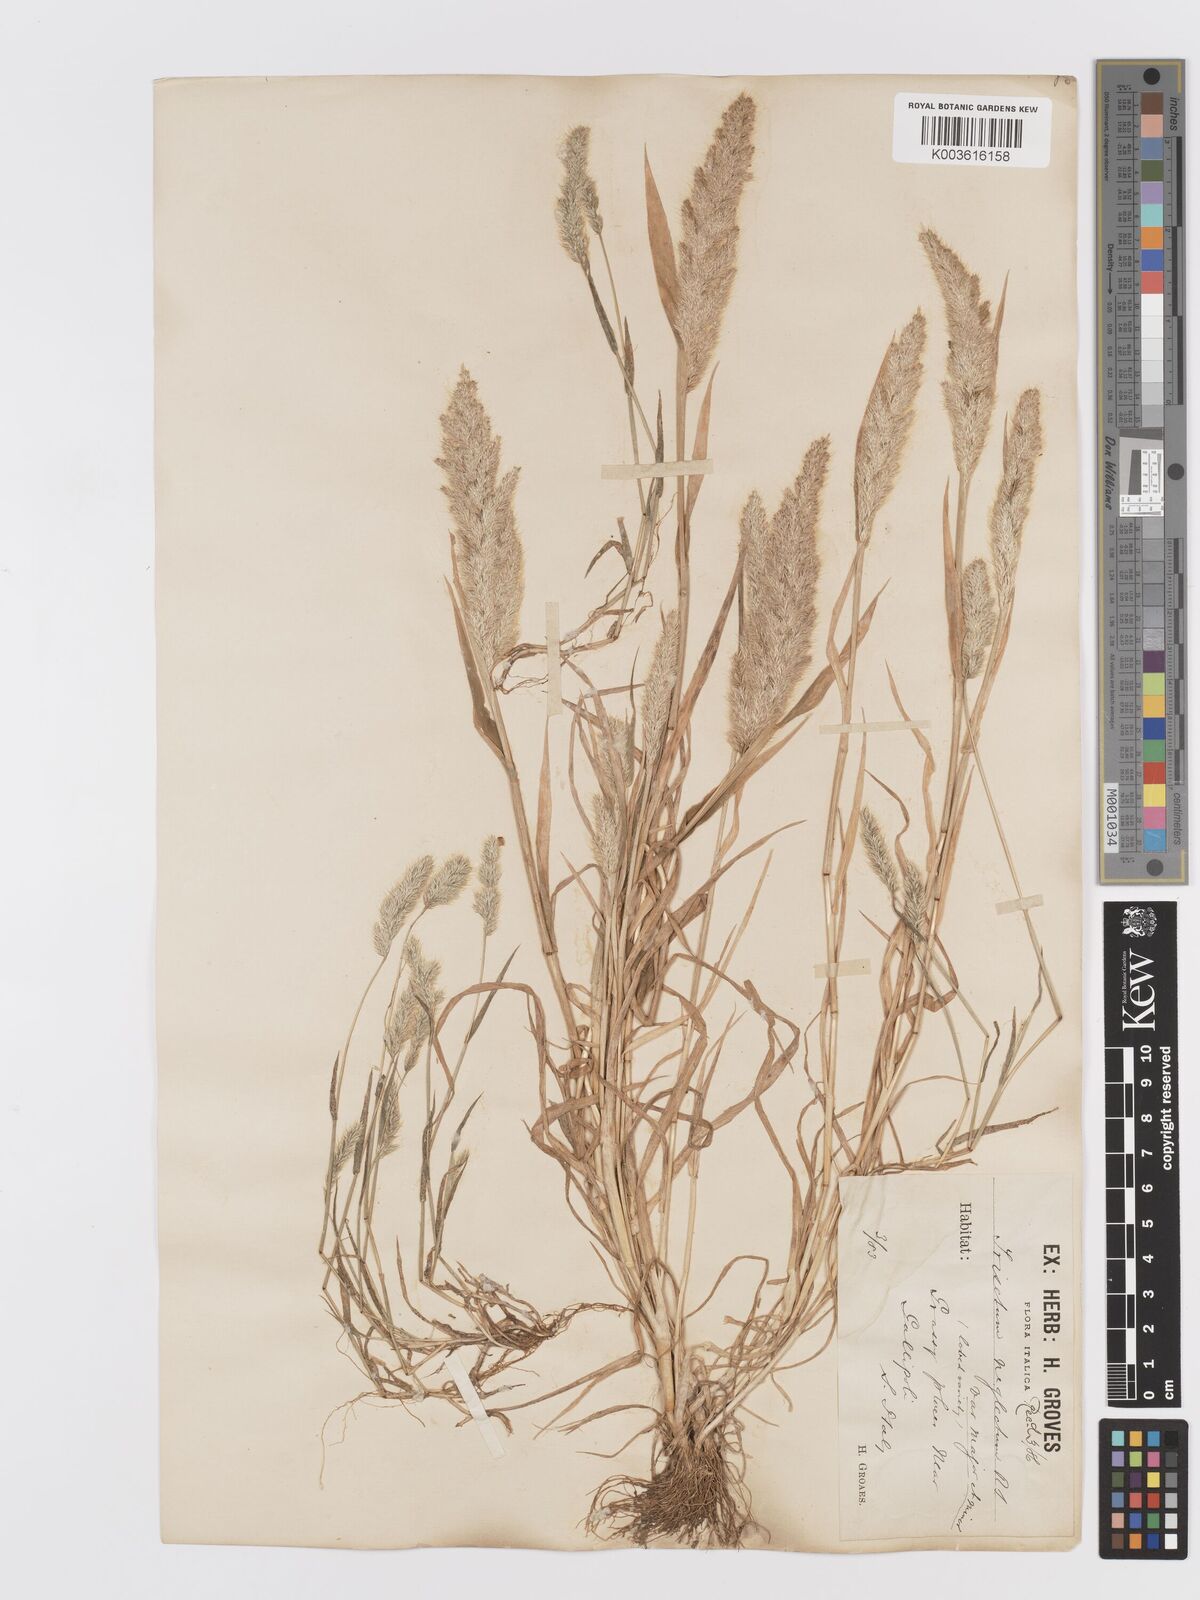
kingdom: Plantae
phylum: Tracheophyta
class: Liliopsida
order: Poales
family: Poaceae
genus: Trisetaria
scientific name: Trisetaria panicea
